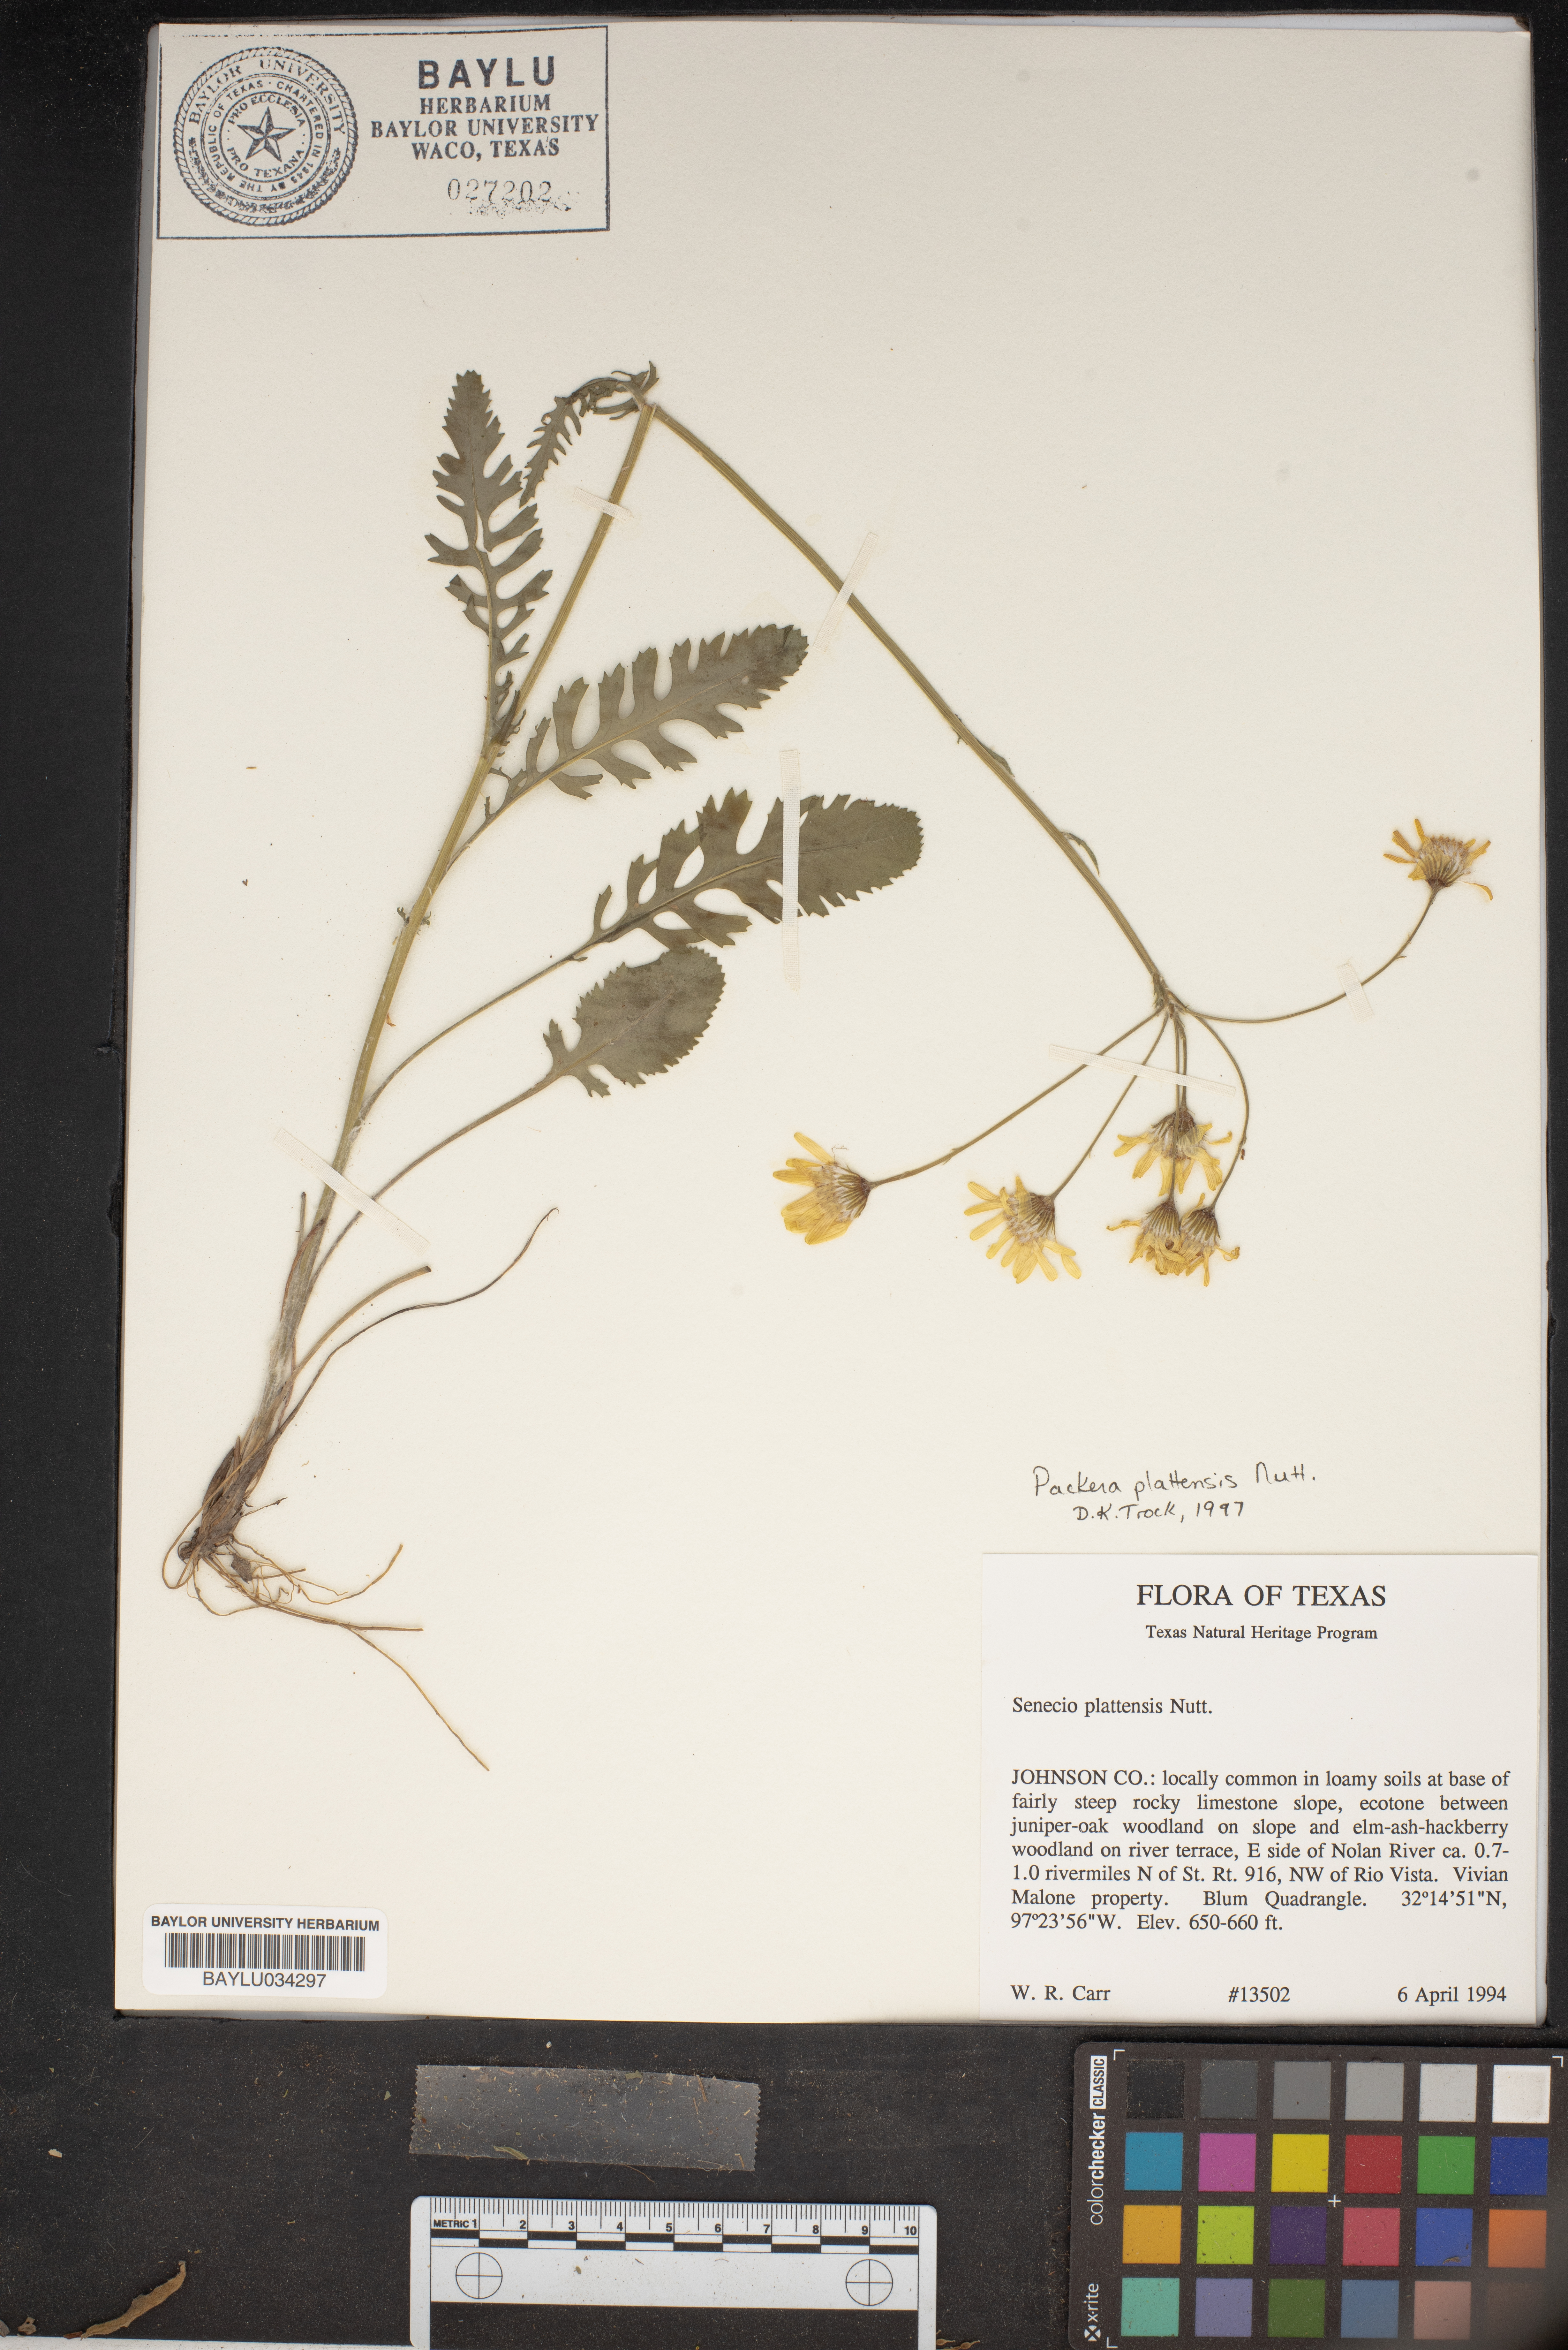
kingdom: Plantae
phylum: Tracheophyta
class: Magnoliopsida
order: Asterales
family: Asteraceae
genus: Packera
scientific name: Packera plattensis
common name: Prairie groundsel
